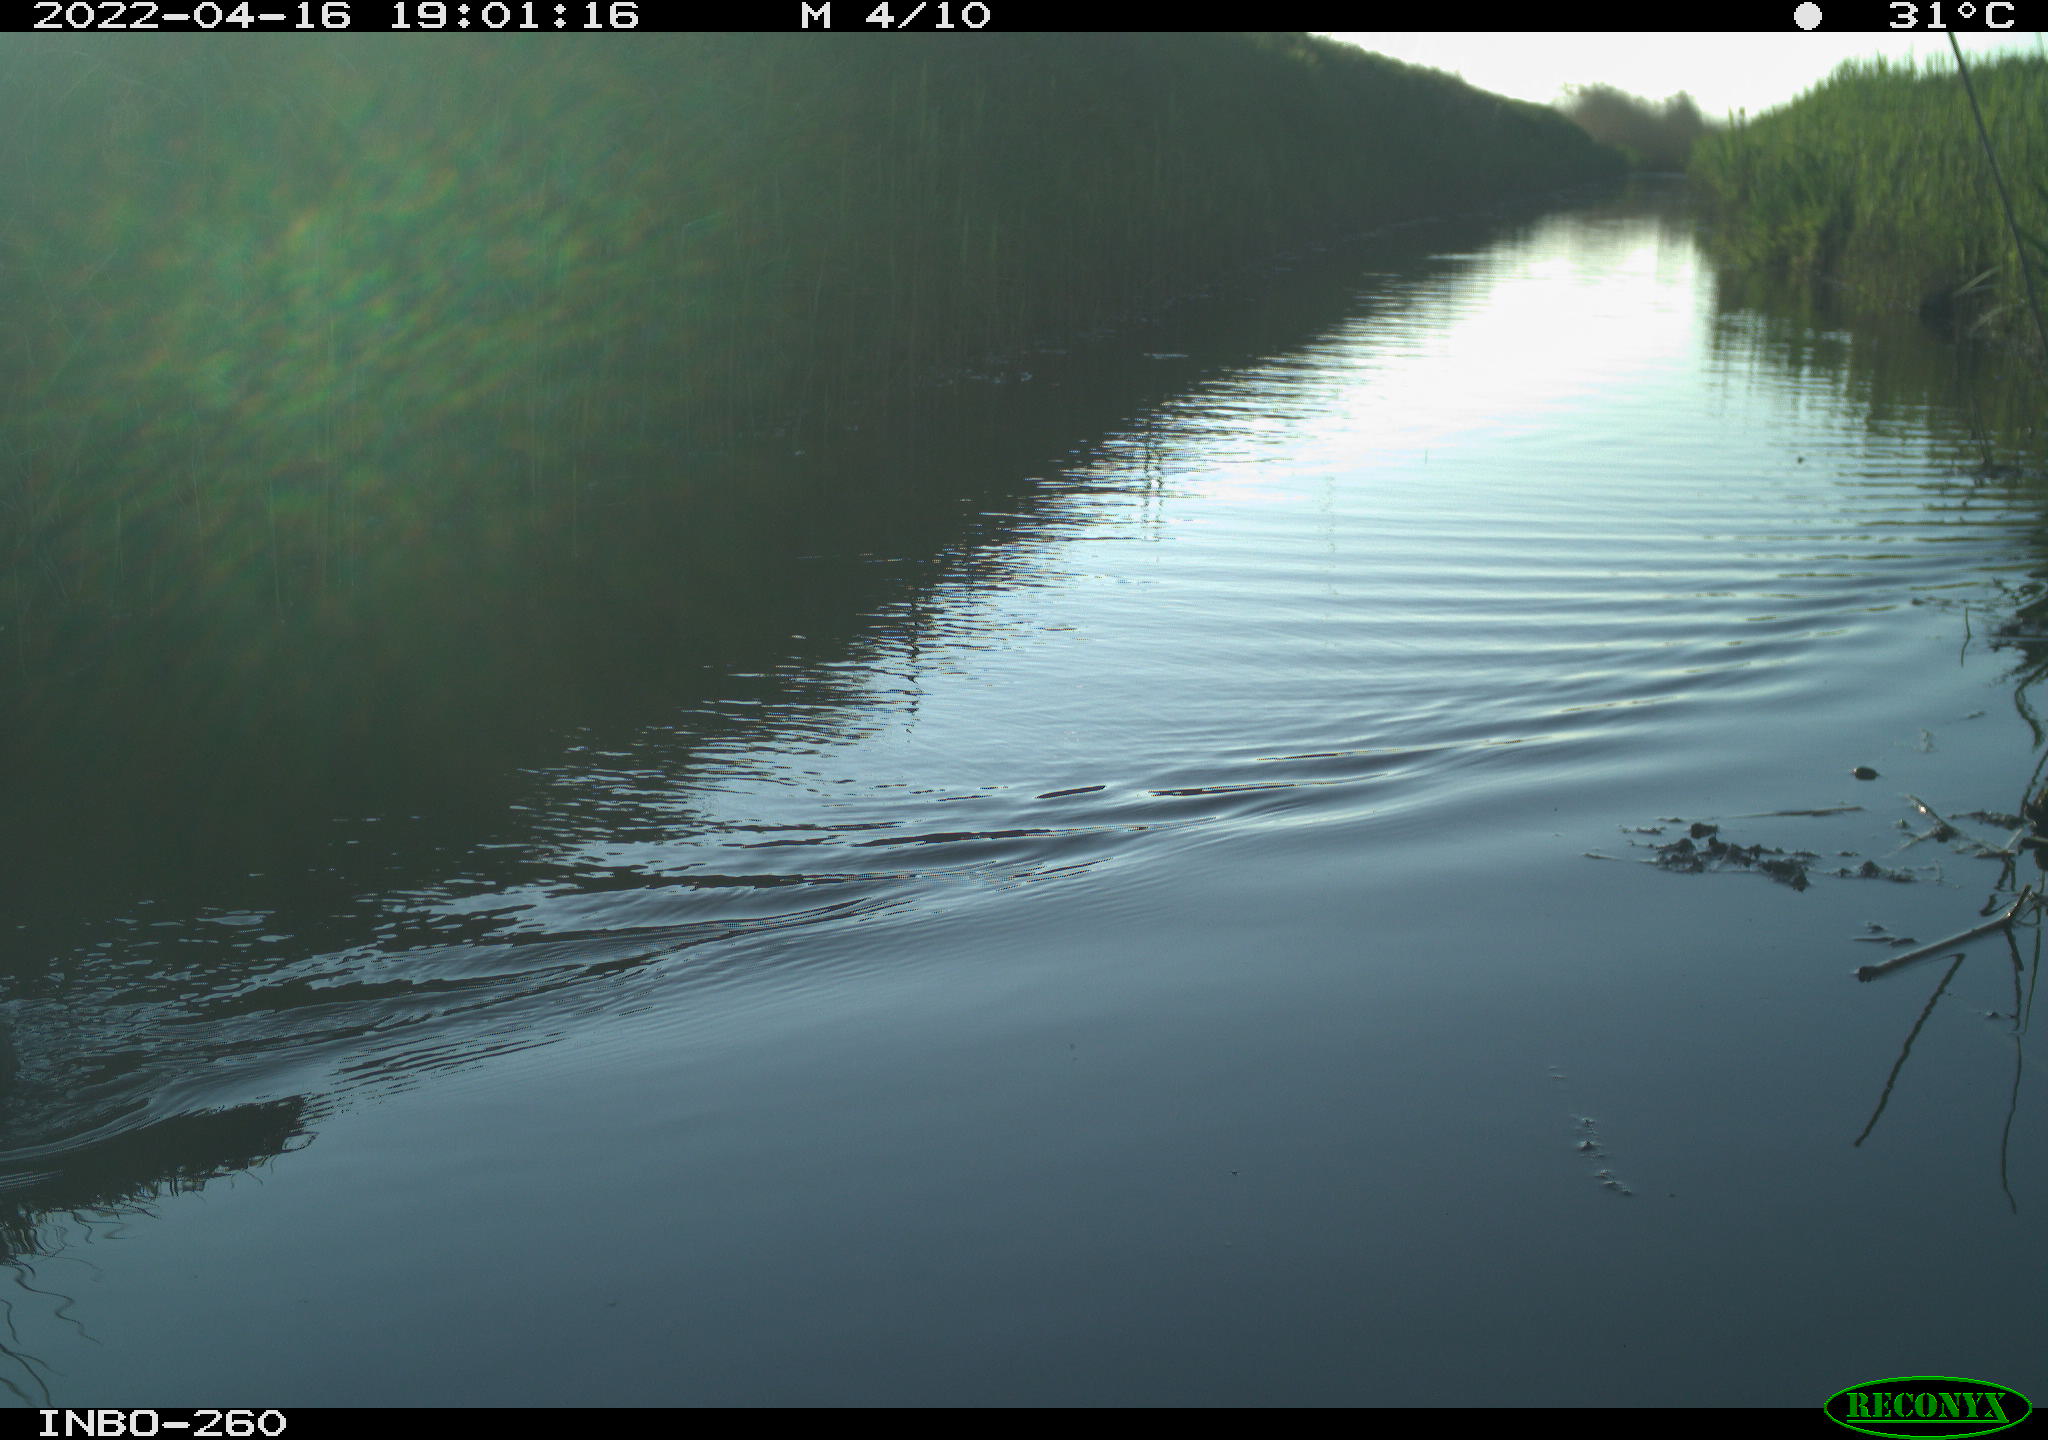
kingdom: Animalia
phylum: Chordata
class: Aves
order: Gruiformes
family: Rallidae
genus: Fulica
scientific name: Fulica atra
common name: Eurasian coot
